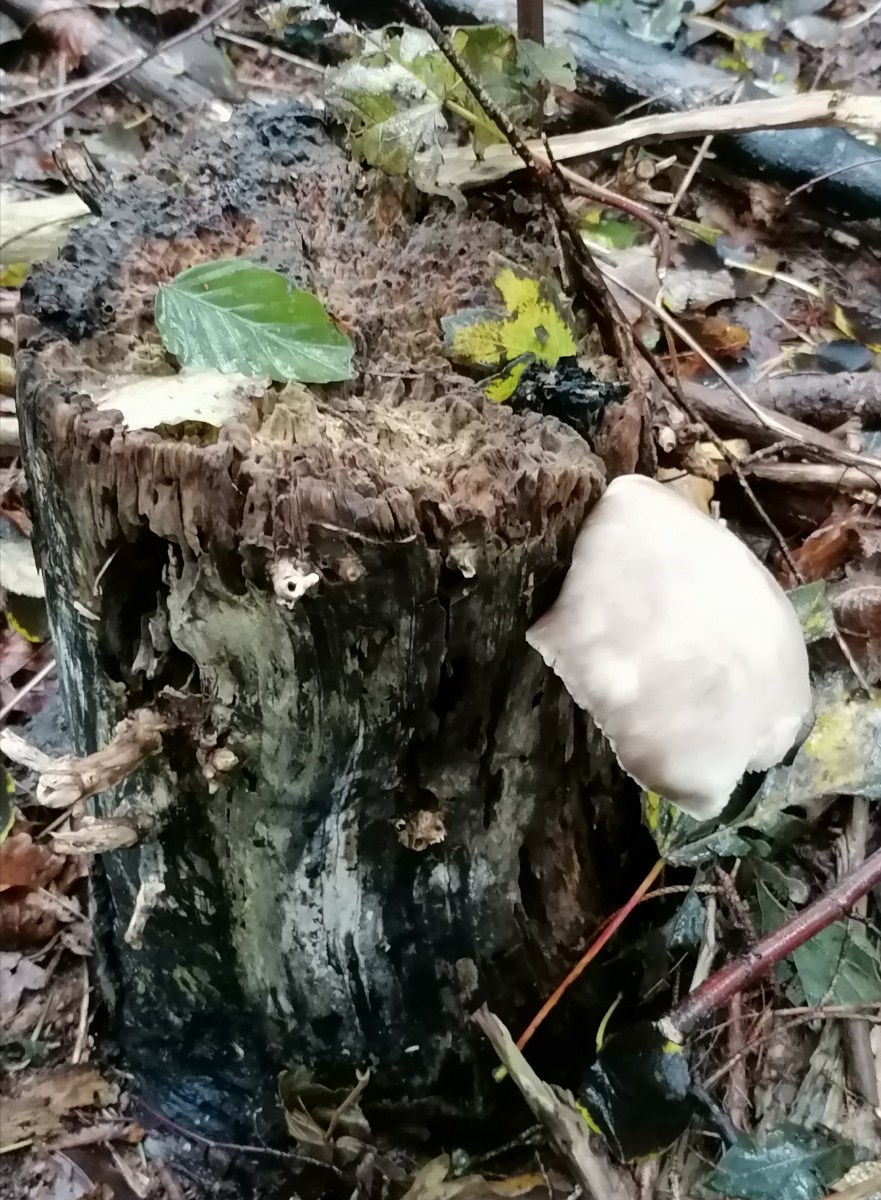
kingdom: Fungi
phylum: Basidiomycota
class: Agaricomycetes
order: Agaricales
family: Pluteaceae
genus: Pluteus
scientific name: Pluteus
